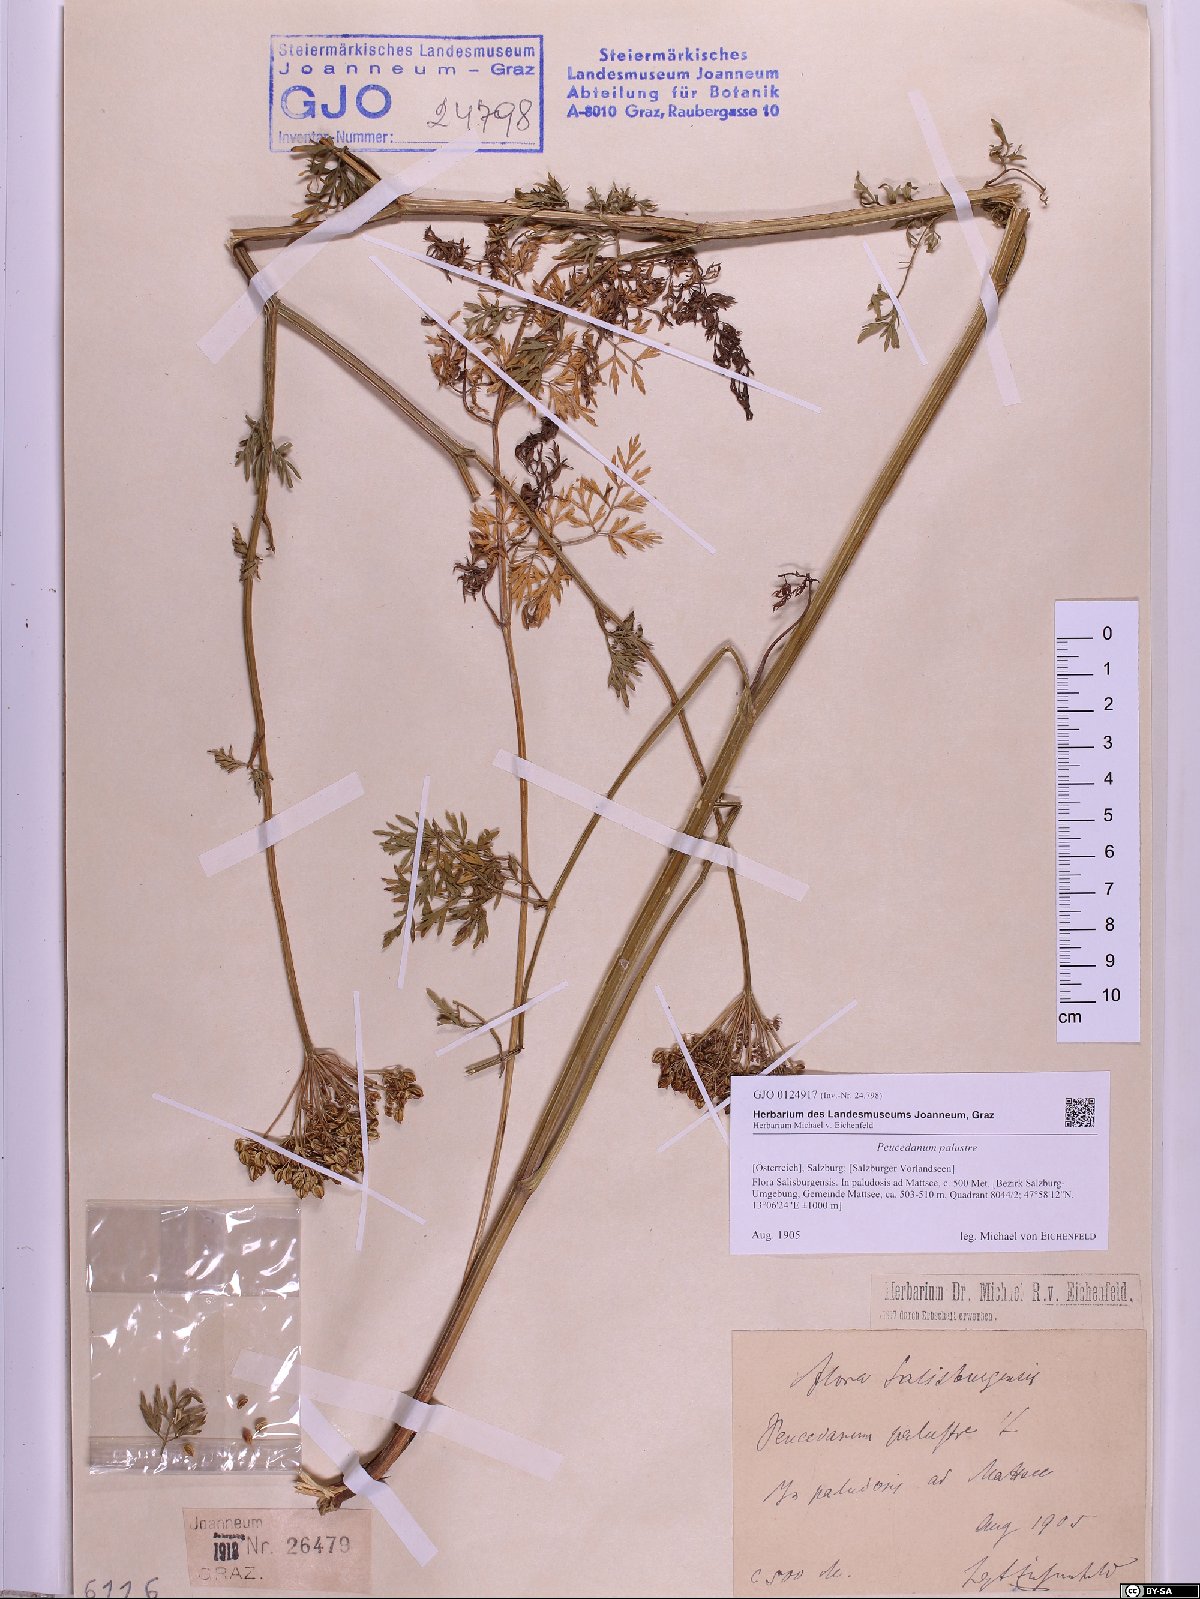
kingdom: Plantae
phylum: Tracheophyta
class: Magnoliopsida
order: Apiales
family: Apiaceae
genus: Thysselinum
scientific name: Thysselinum palustre
